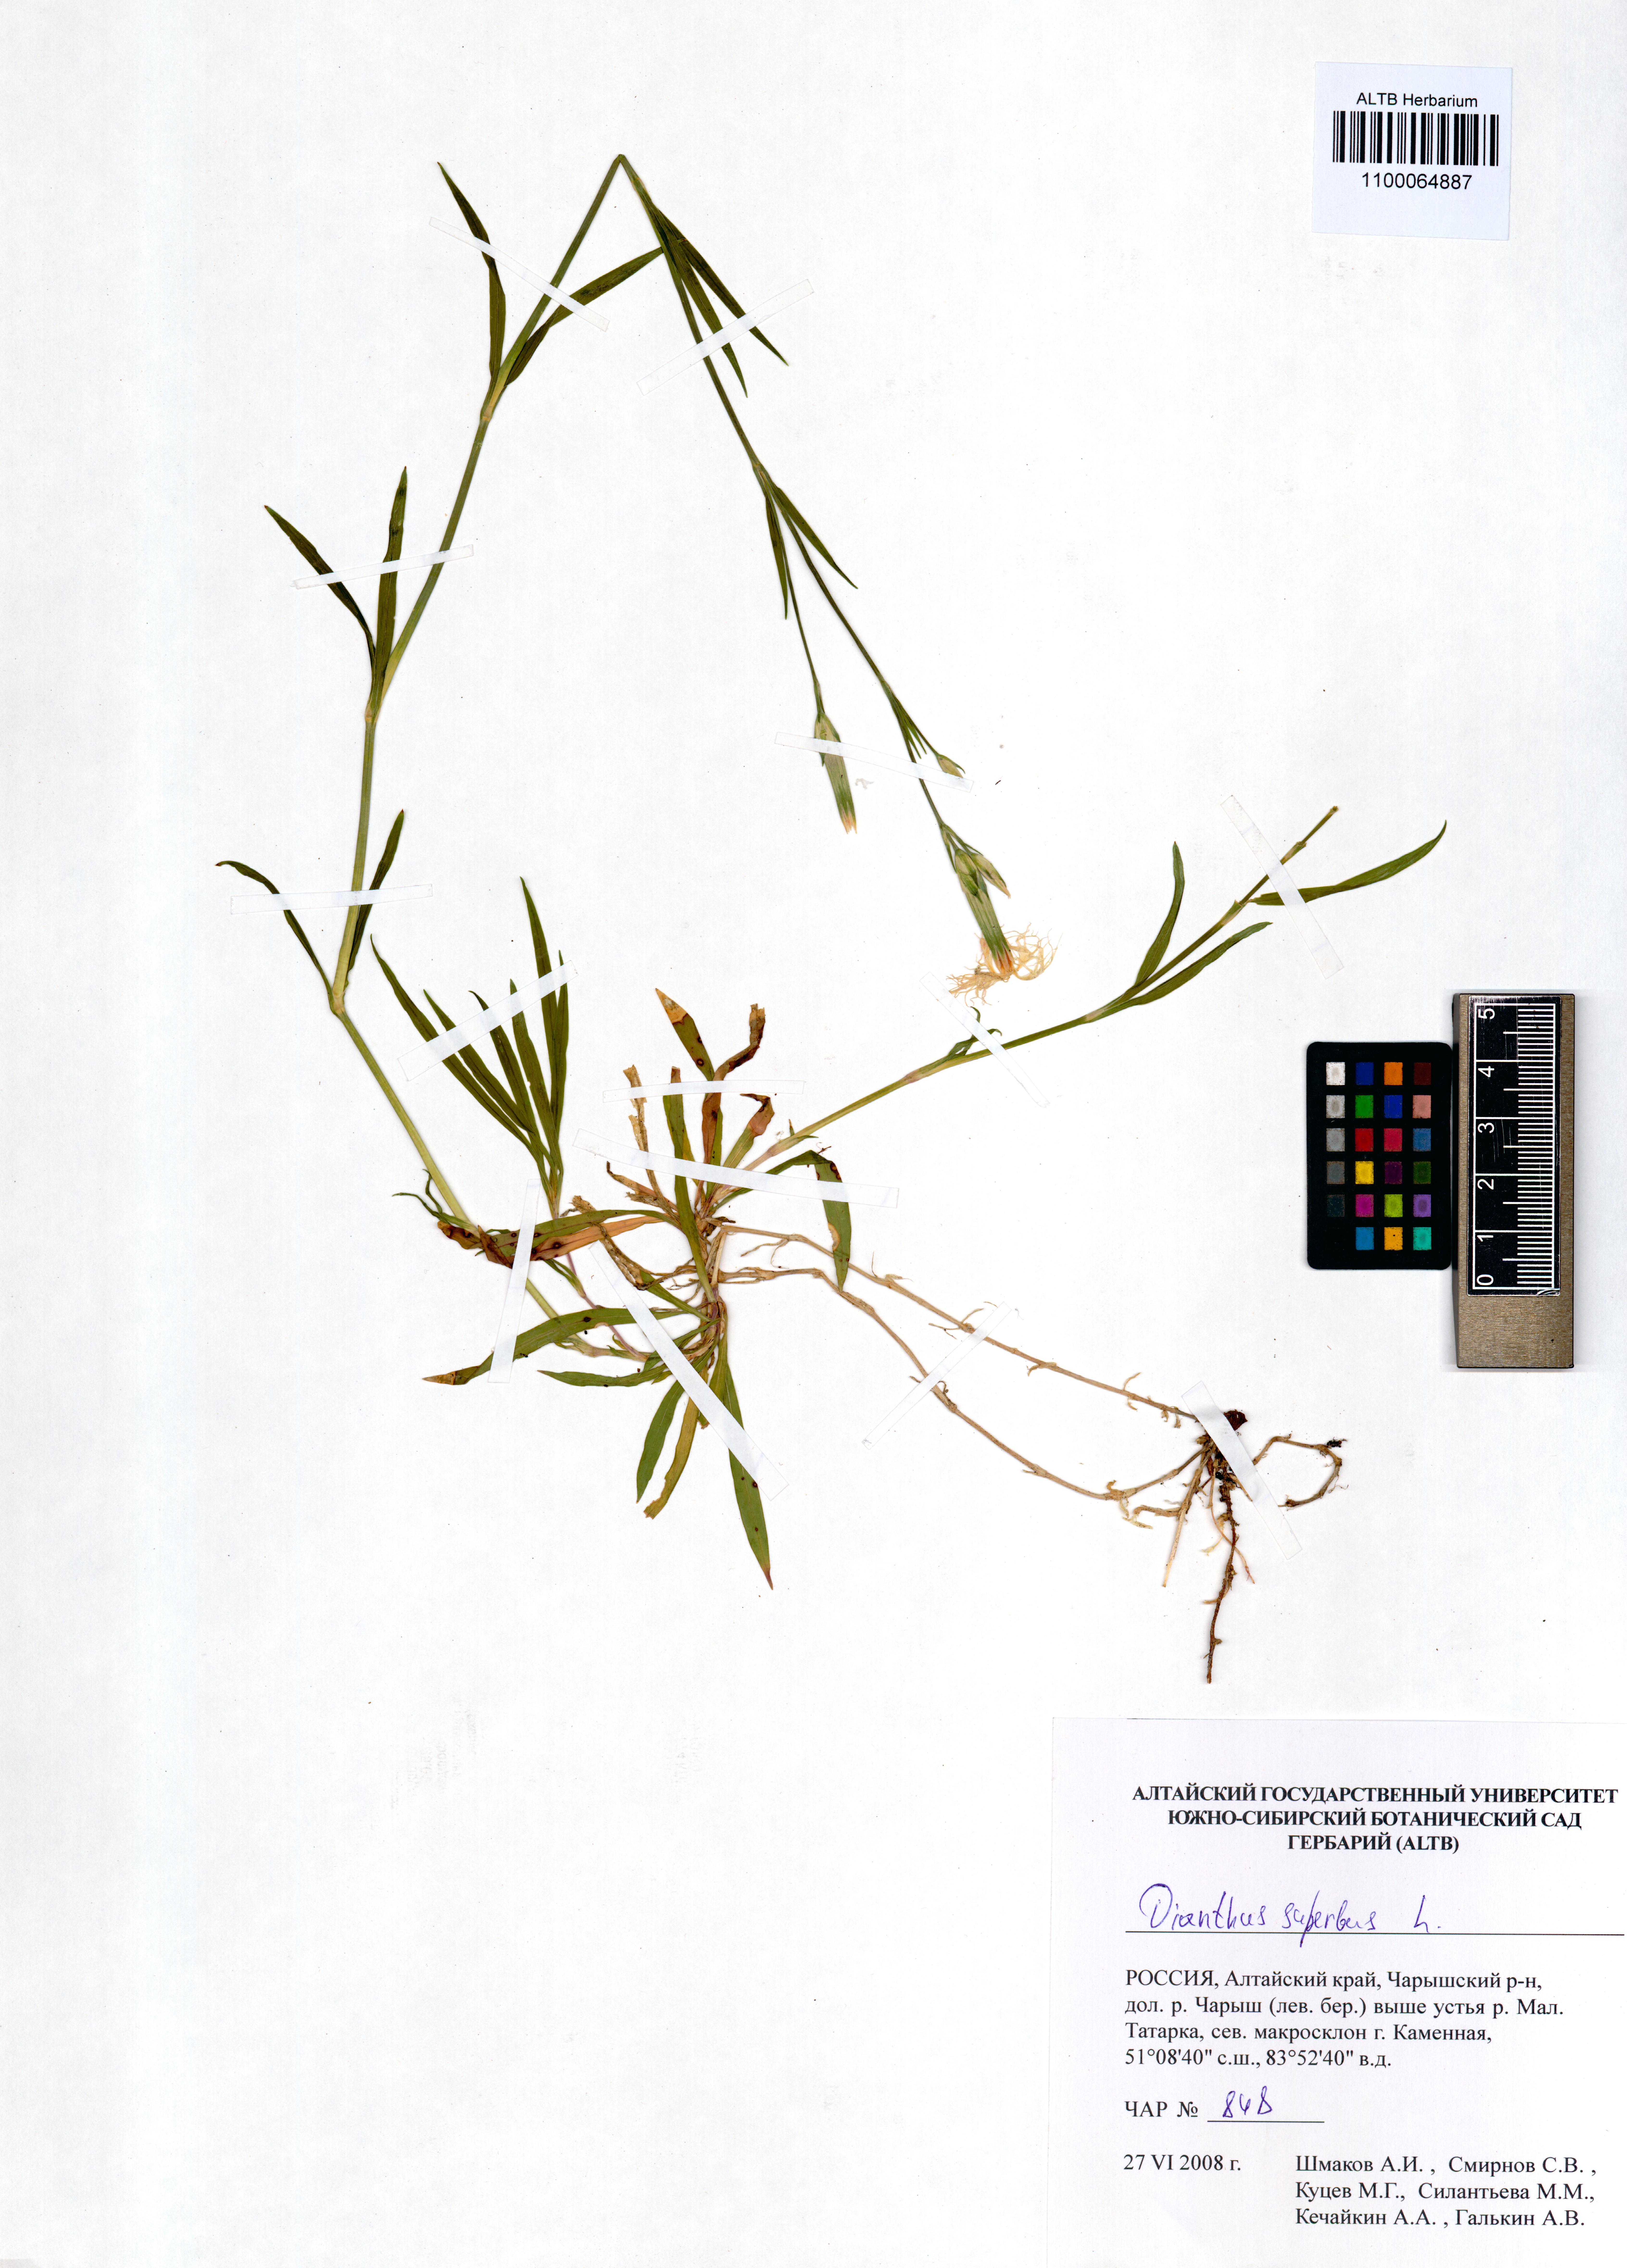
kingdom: Plantae
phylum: Tracheophyta
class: Magnoliopsida
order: Caryophyllales
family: Caryophyllaceae
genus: Dianthus
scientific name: Dianthus superbus
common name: Fringed pink
